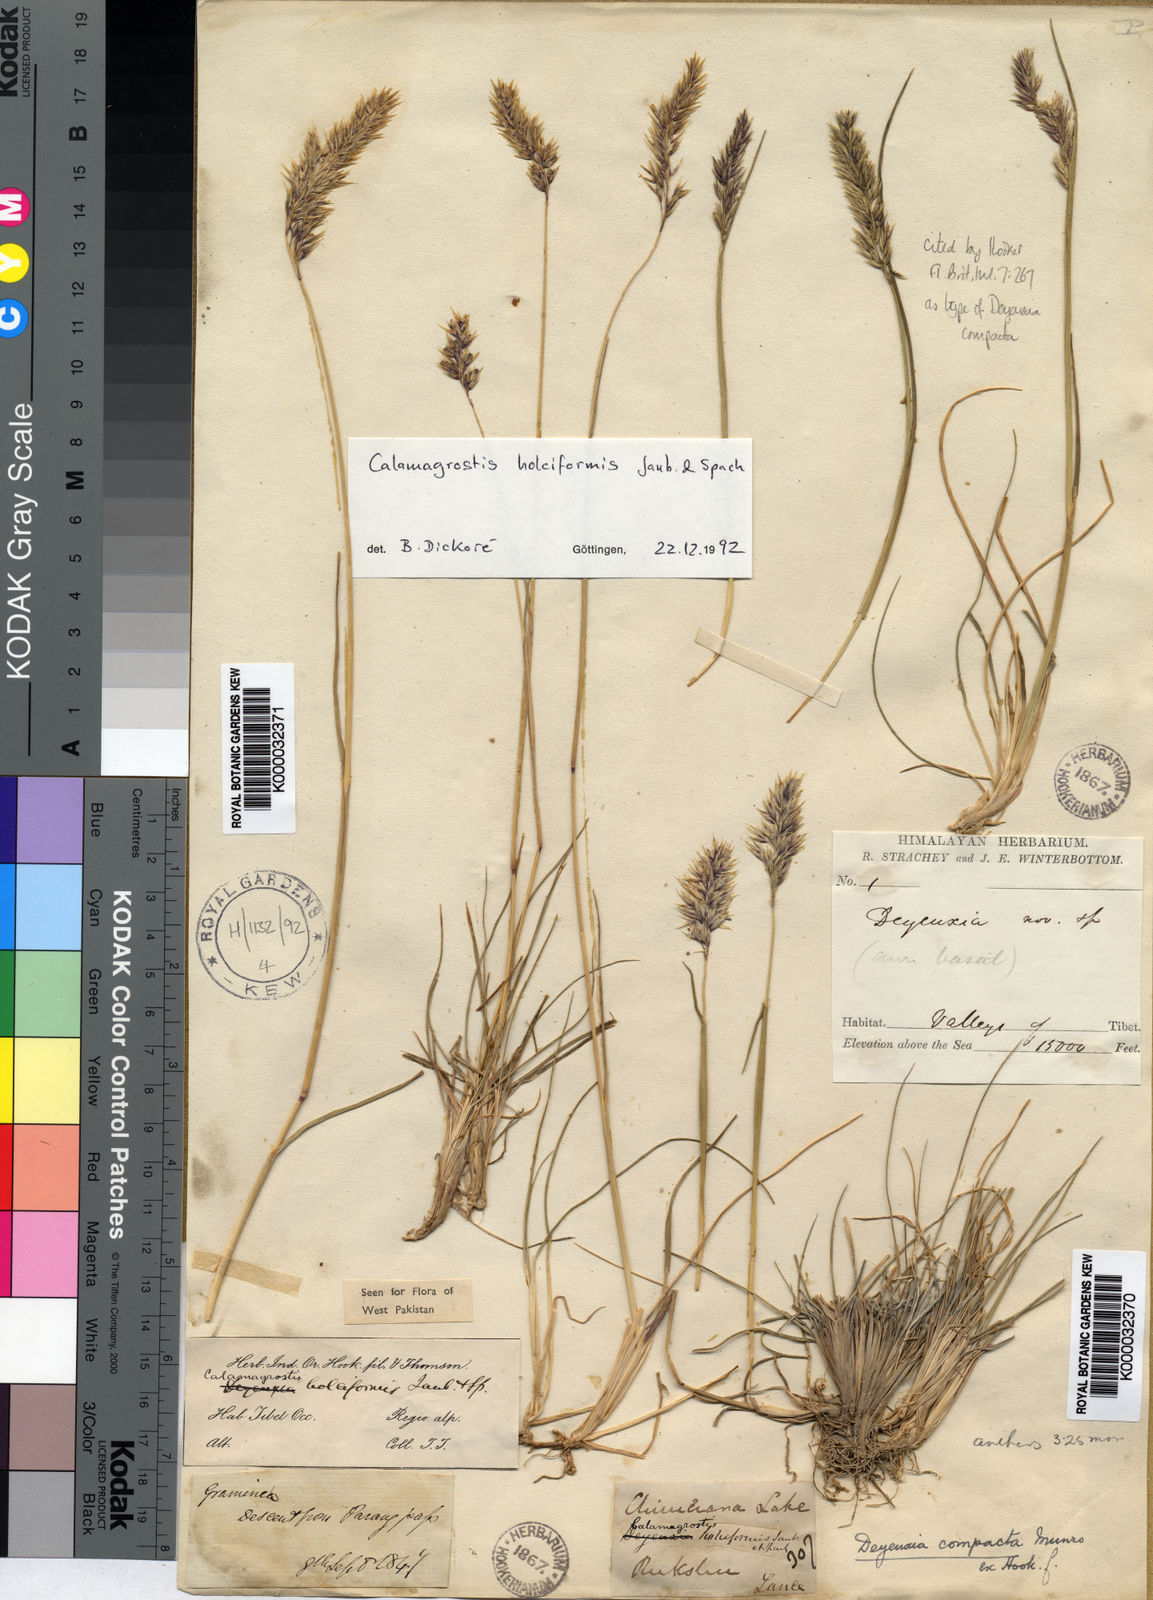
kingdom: Plantae
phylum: Tracheophyta
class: Liliopsida
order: Poales
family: Poaceae
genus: Calamagrostis
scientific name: Calamagrostis holciformis
